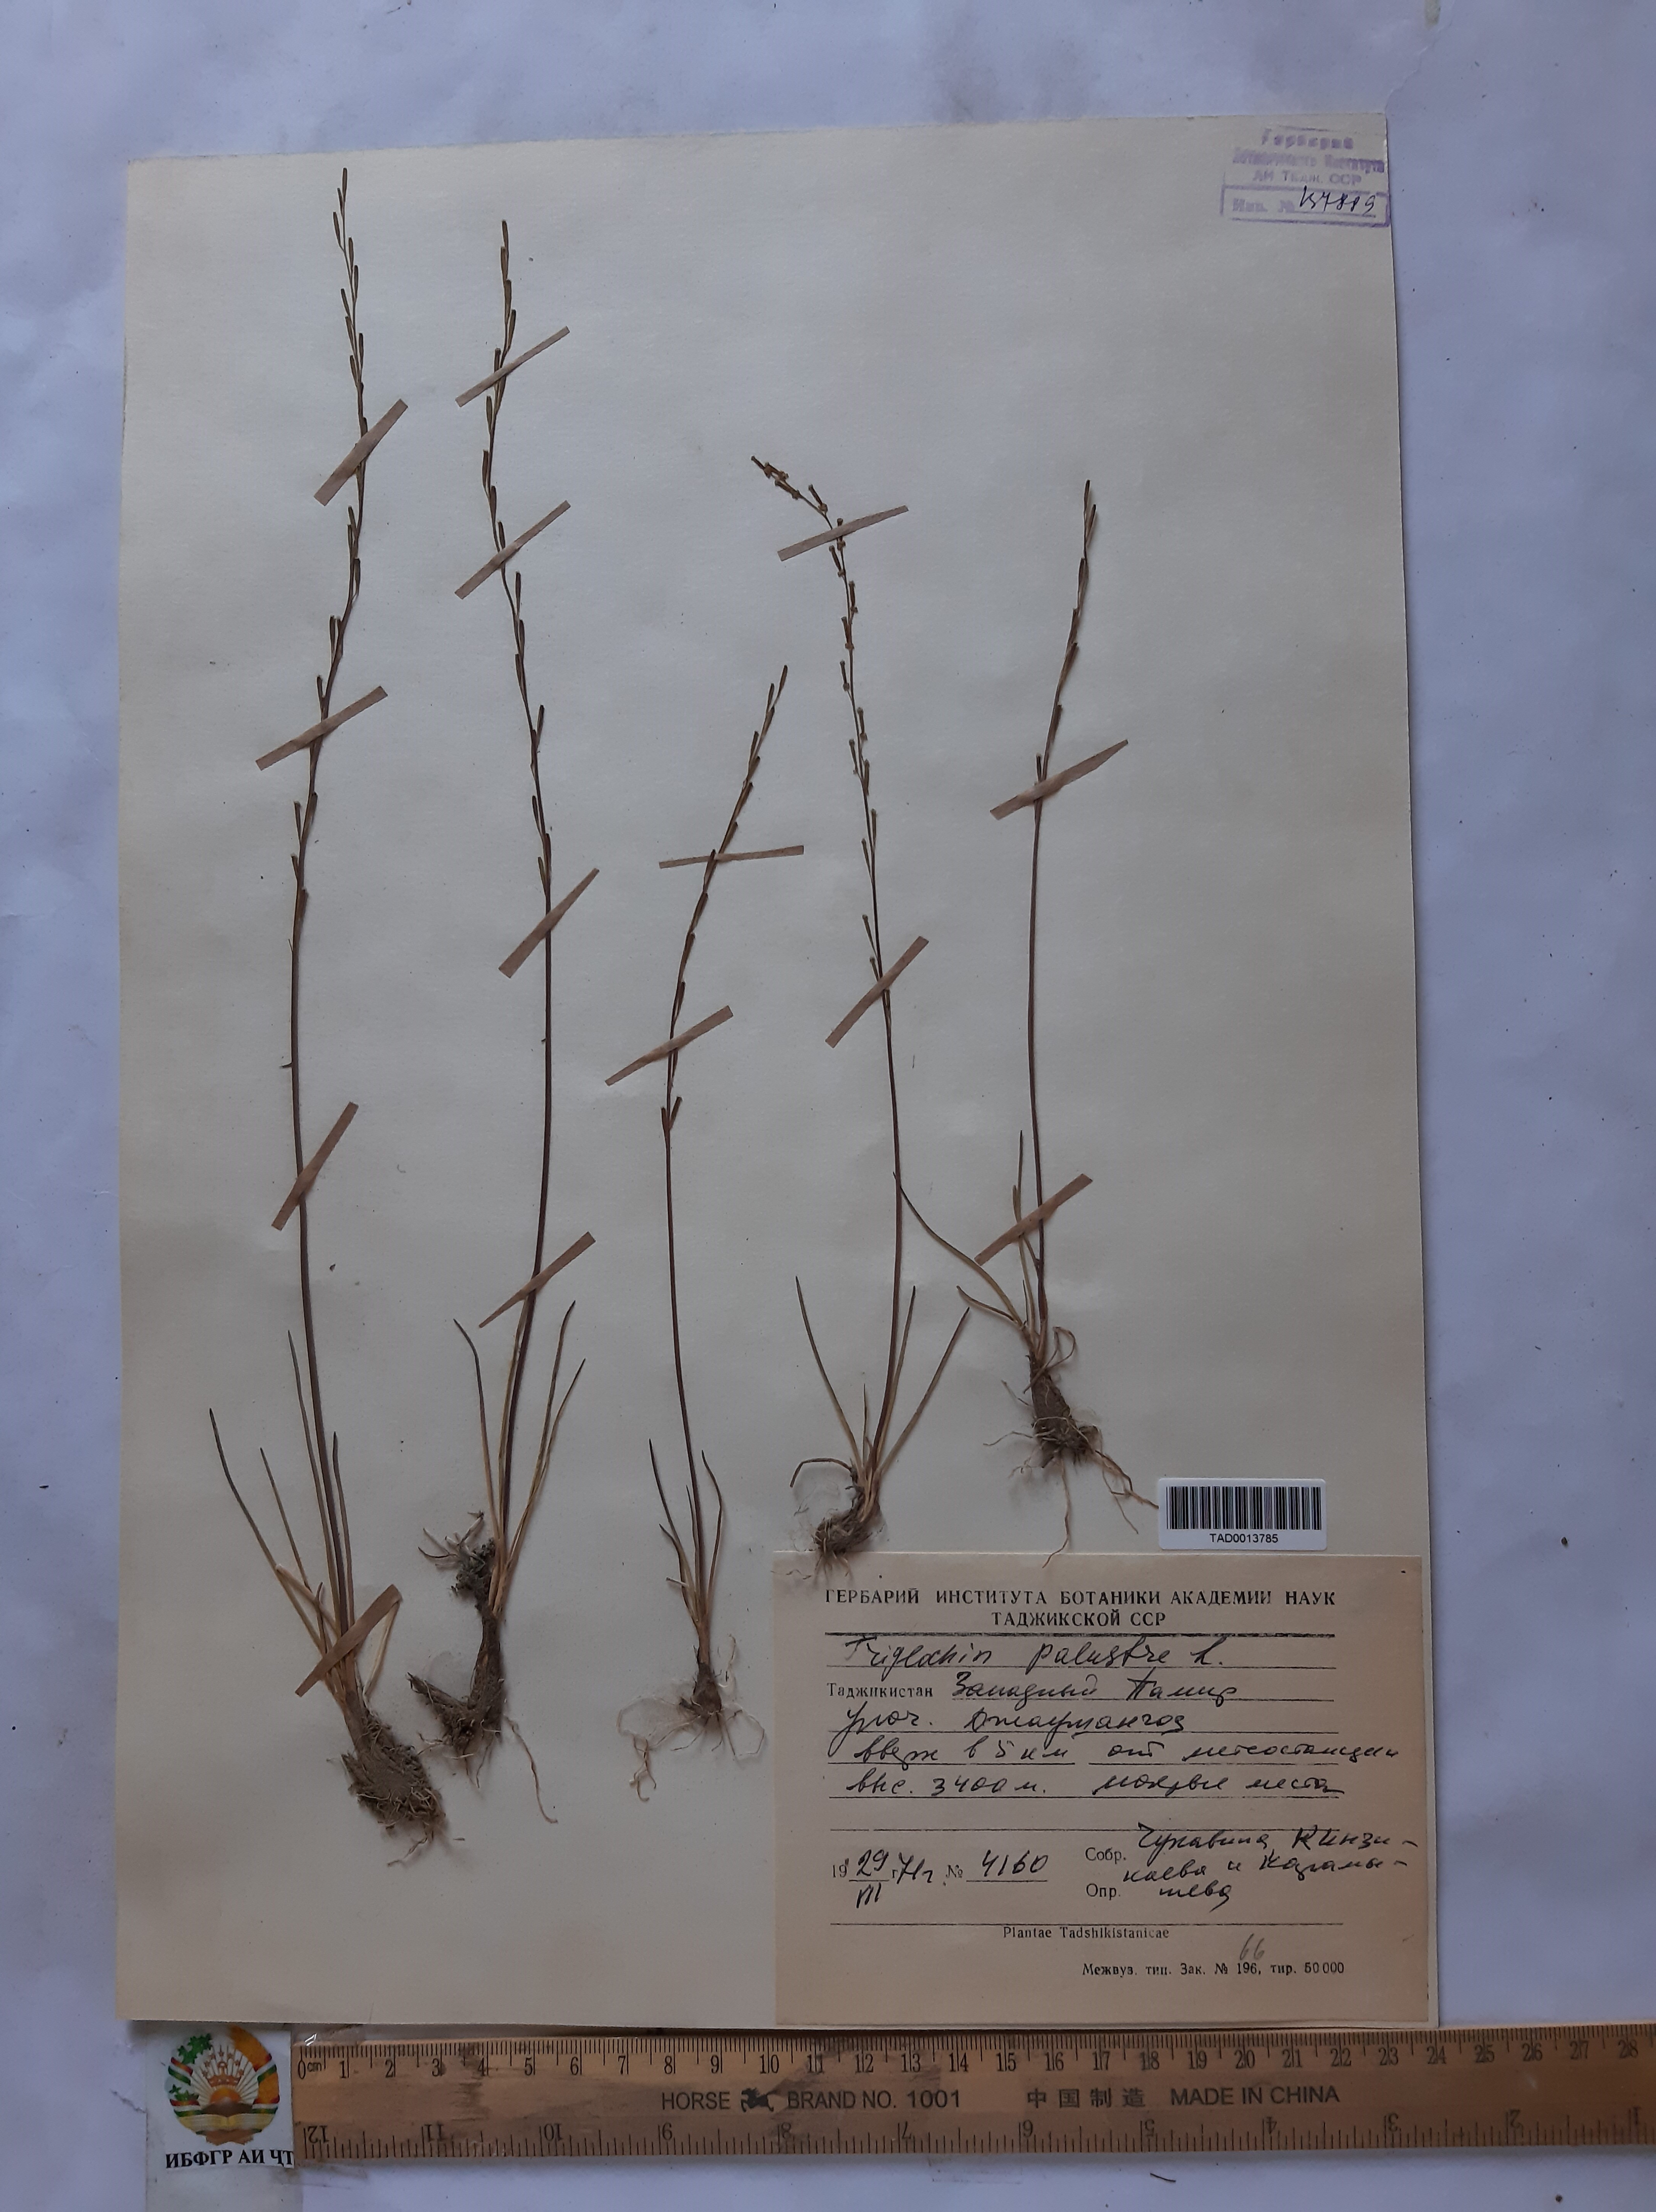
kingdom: Plantae
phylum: Tracheophyta
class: Liliopsida
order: Alismatales
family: Juncaginaceae
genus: Triglochin
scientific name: Triglochin palustris
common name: Marsh arrowgrass
